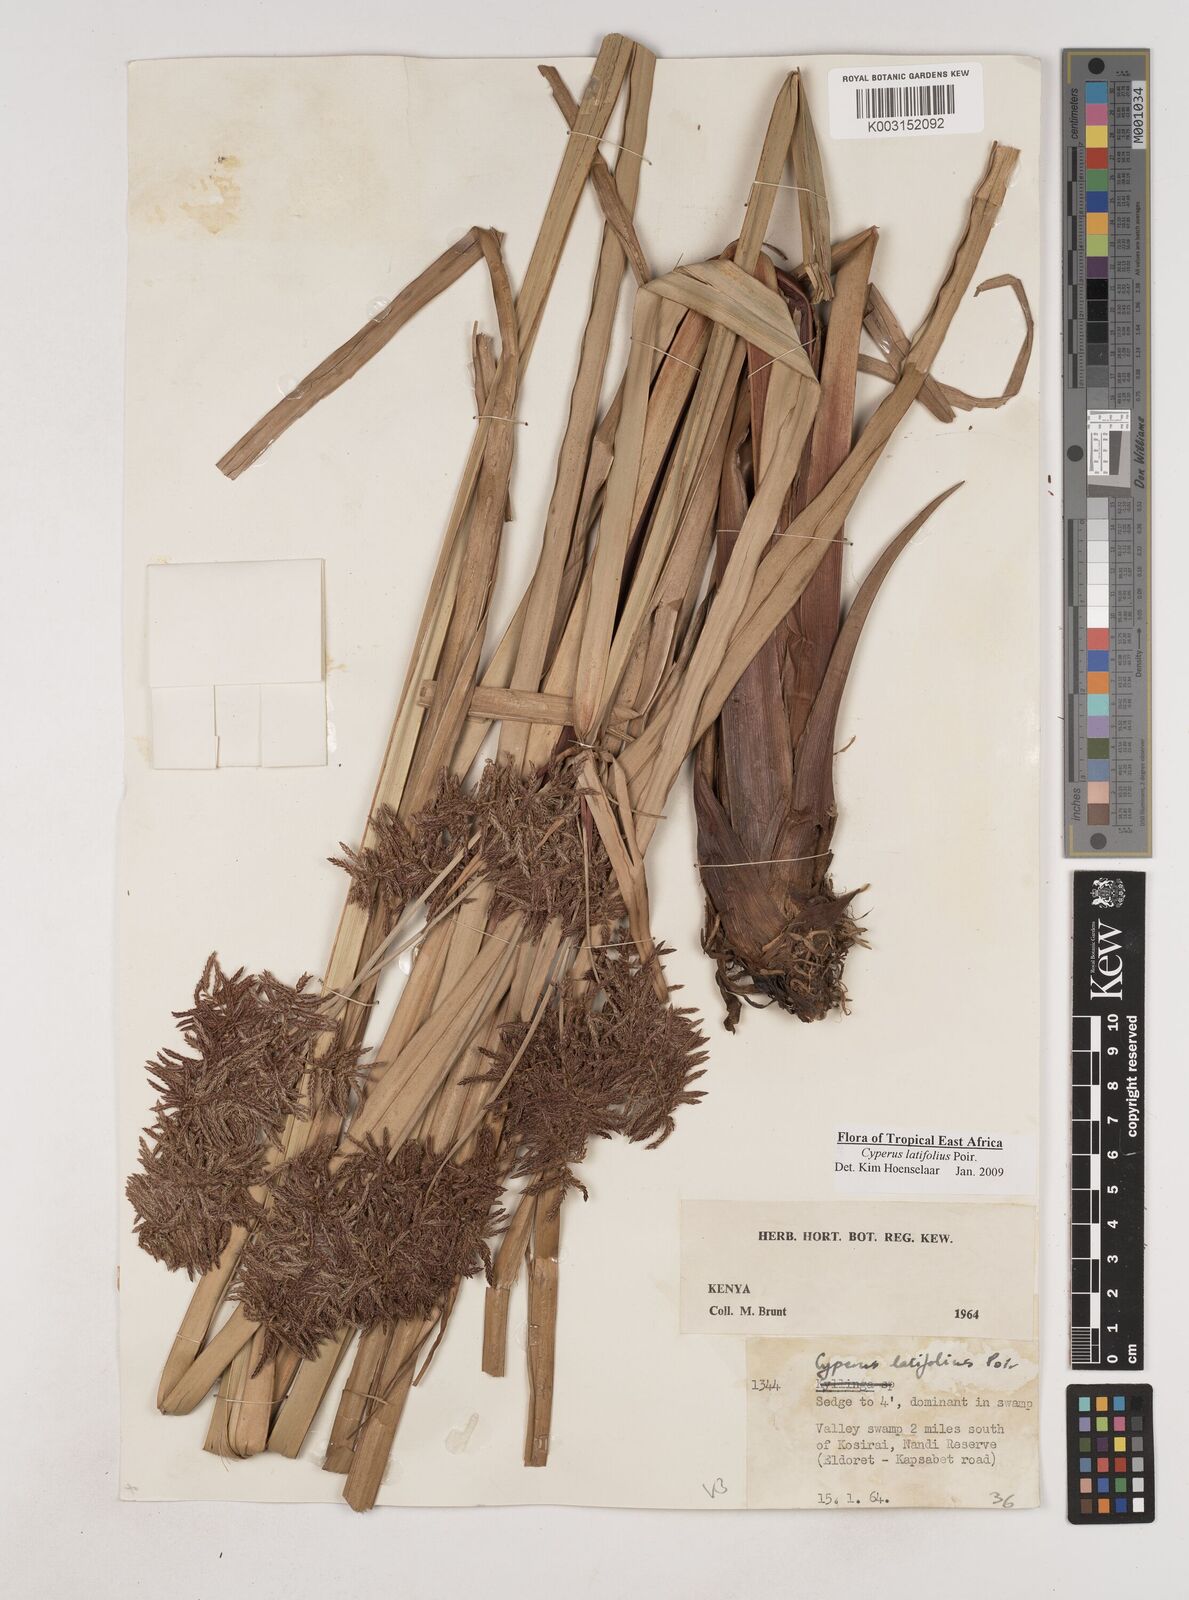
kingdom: Plantae
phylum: Tracheophyta
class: Liliopsida
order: Poales
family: Cyperaceae
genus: Cyperus
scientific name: Cyperus latifolius
